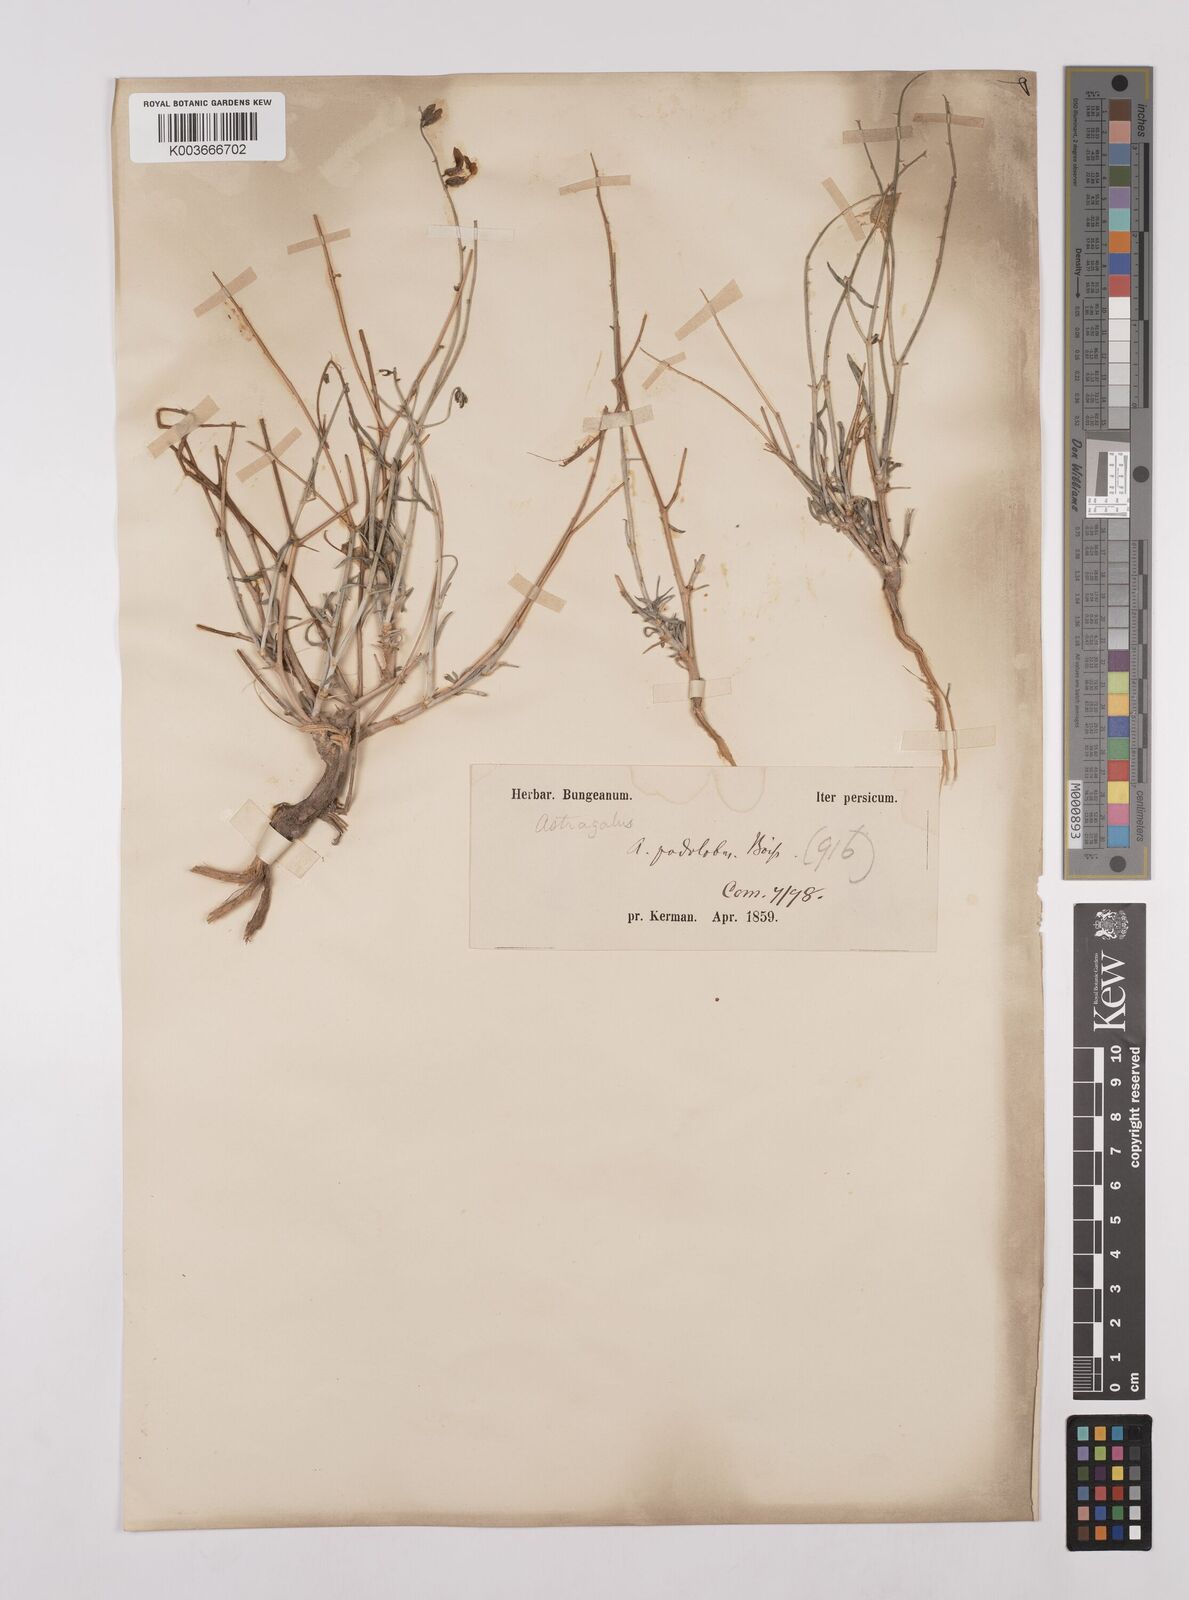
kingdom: Plantae
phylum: Tracheophyta
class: Magnoliopsida
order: Fabales
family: Fabaceae
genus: Astragalus
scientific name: Astragalus podolobus
